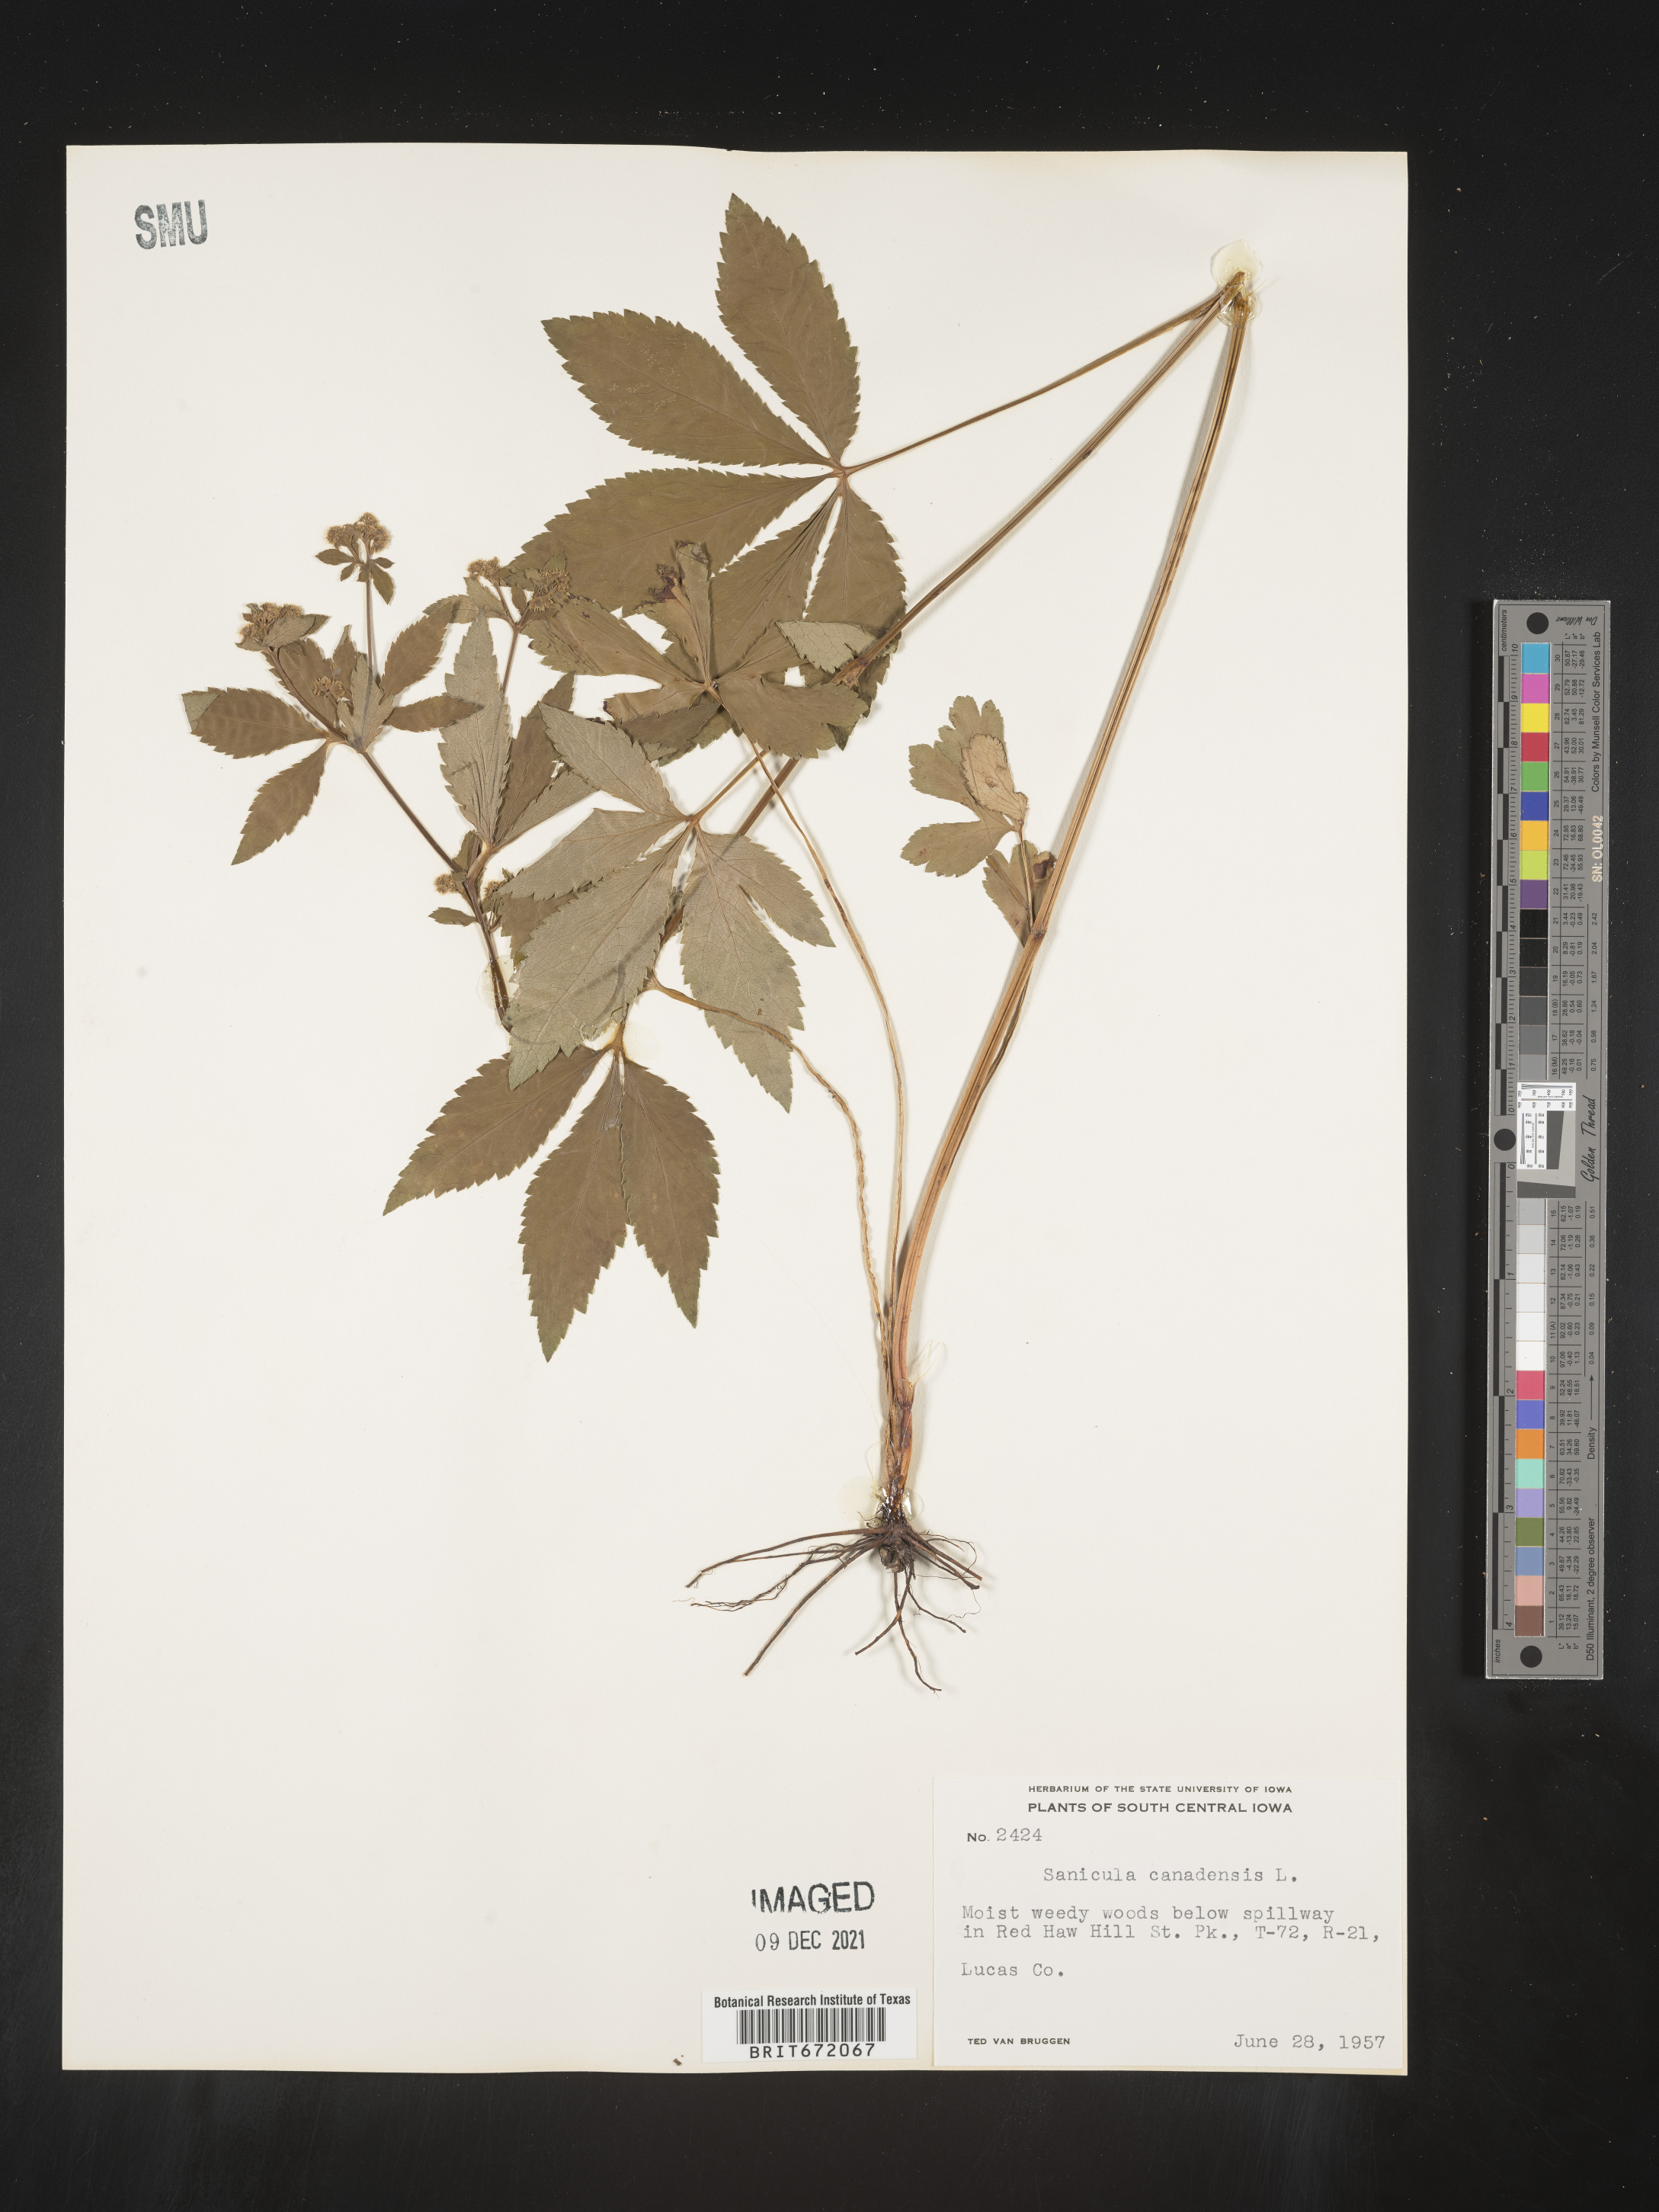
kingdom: Plantae
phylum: Tracheophyta
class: Magnoliopsida
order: Apiales
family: Apiaceae
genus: Sanicula
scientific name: Sanicula canadensis
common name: Canada sanicle
